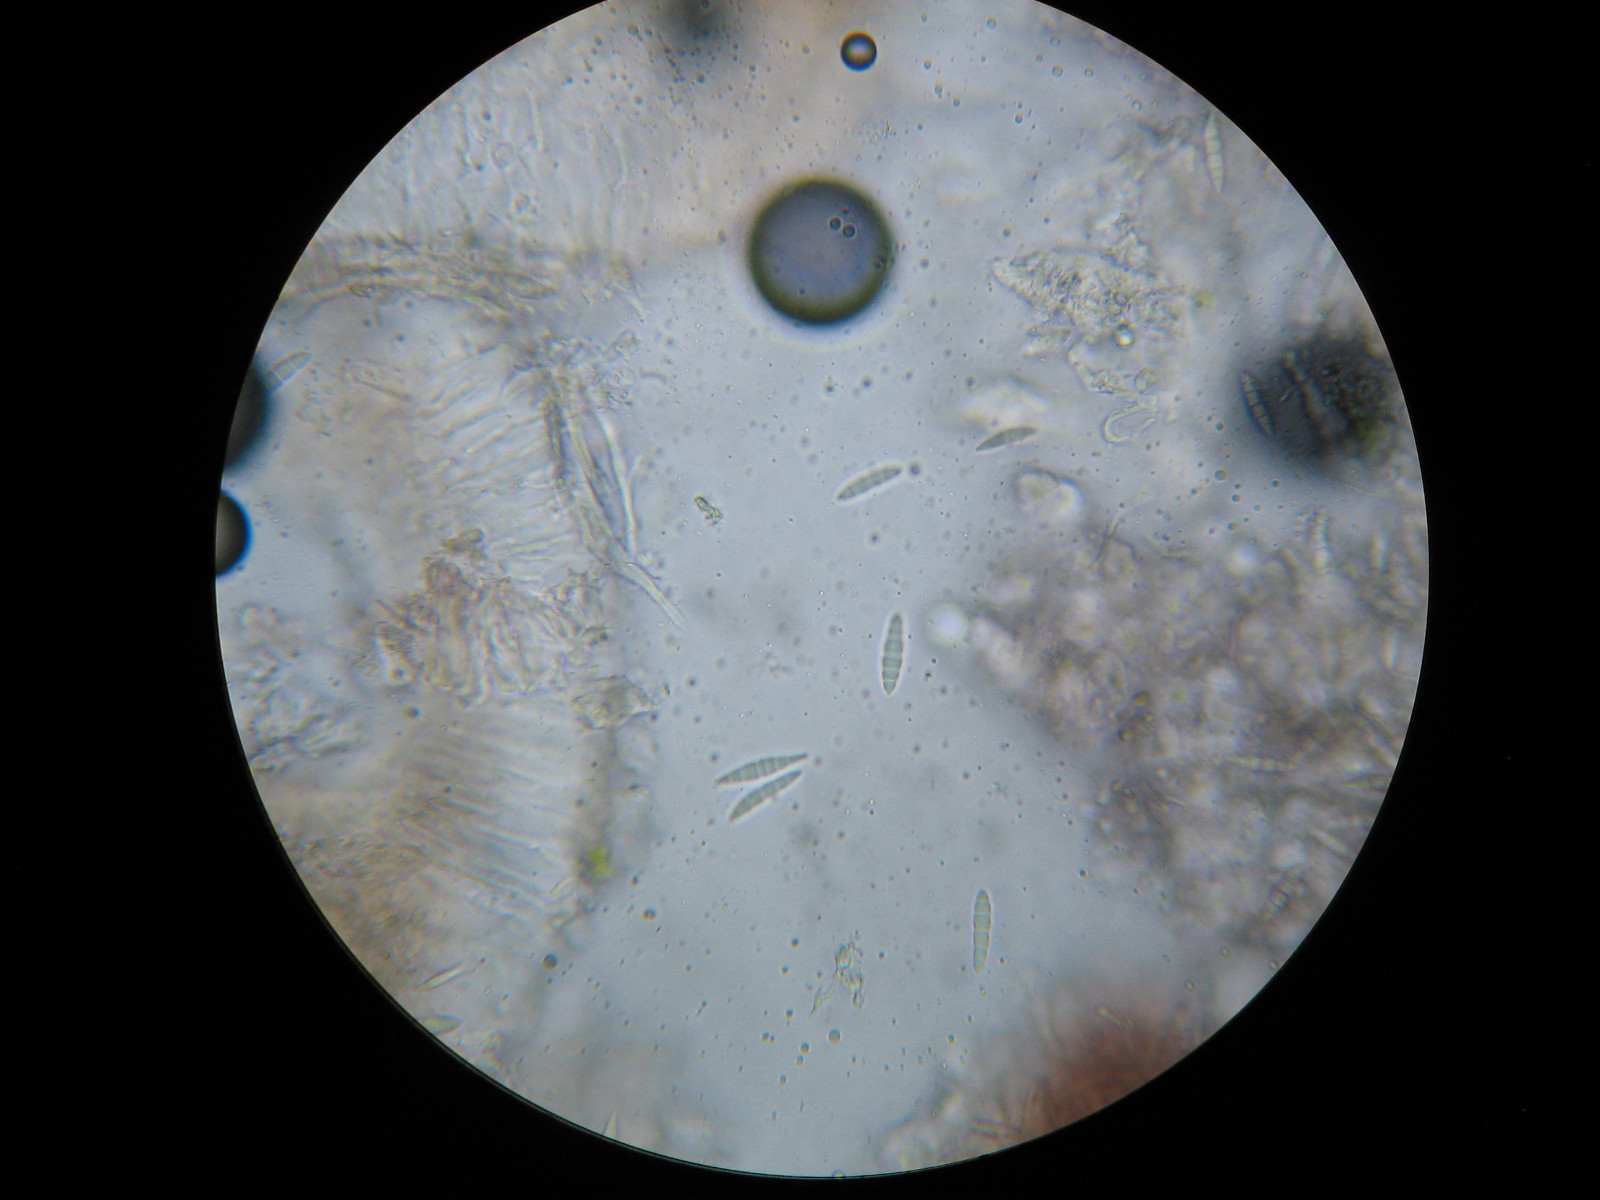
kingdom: Fungi
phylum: Ascomycota
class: Lecanoromycetes
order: Lecanorales
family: Ramalinaceae
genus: Bilimbia
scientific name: Bilimbia sabuletorum
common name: kalk-tensporelav
